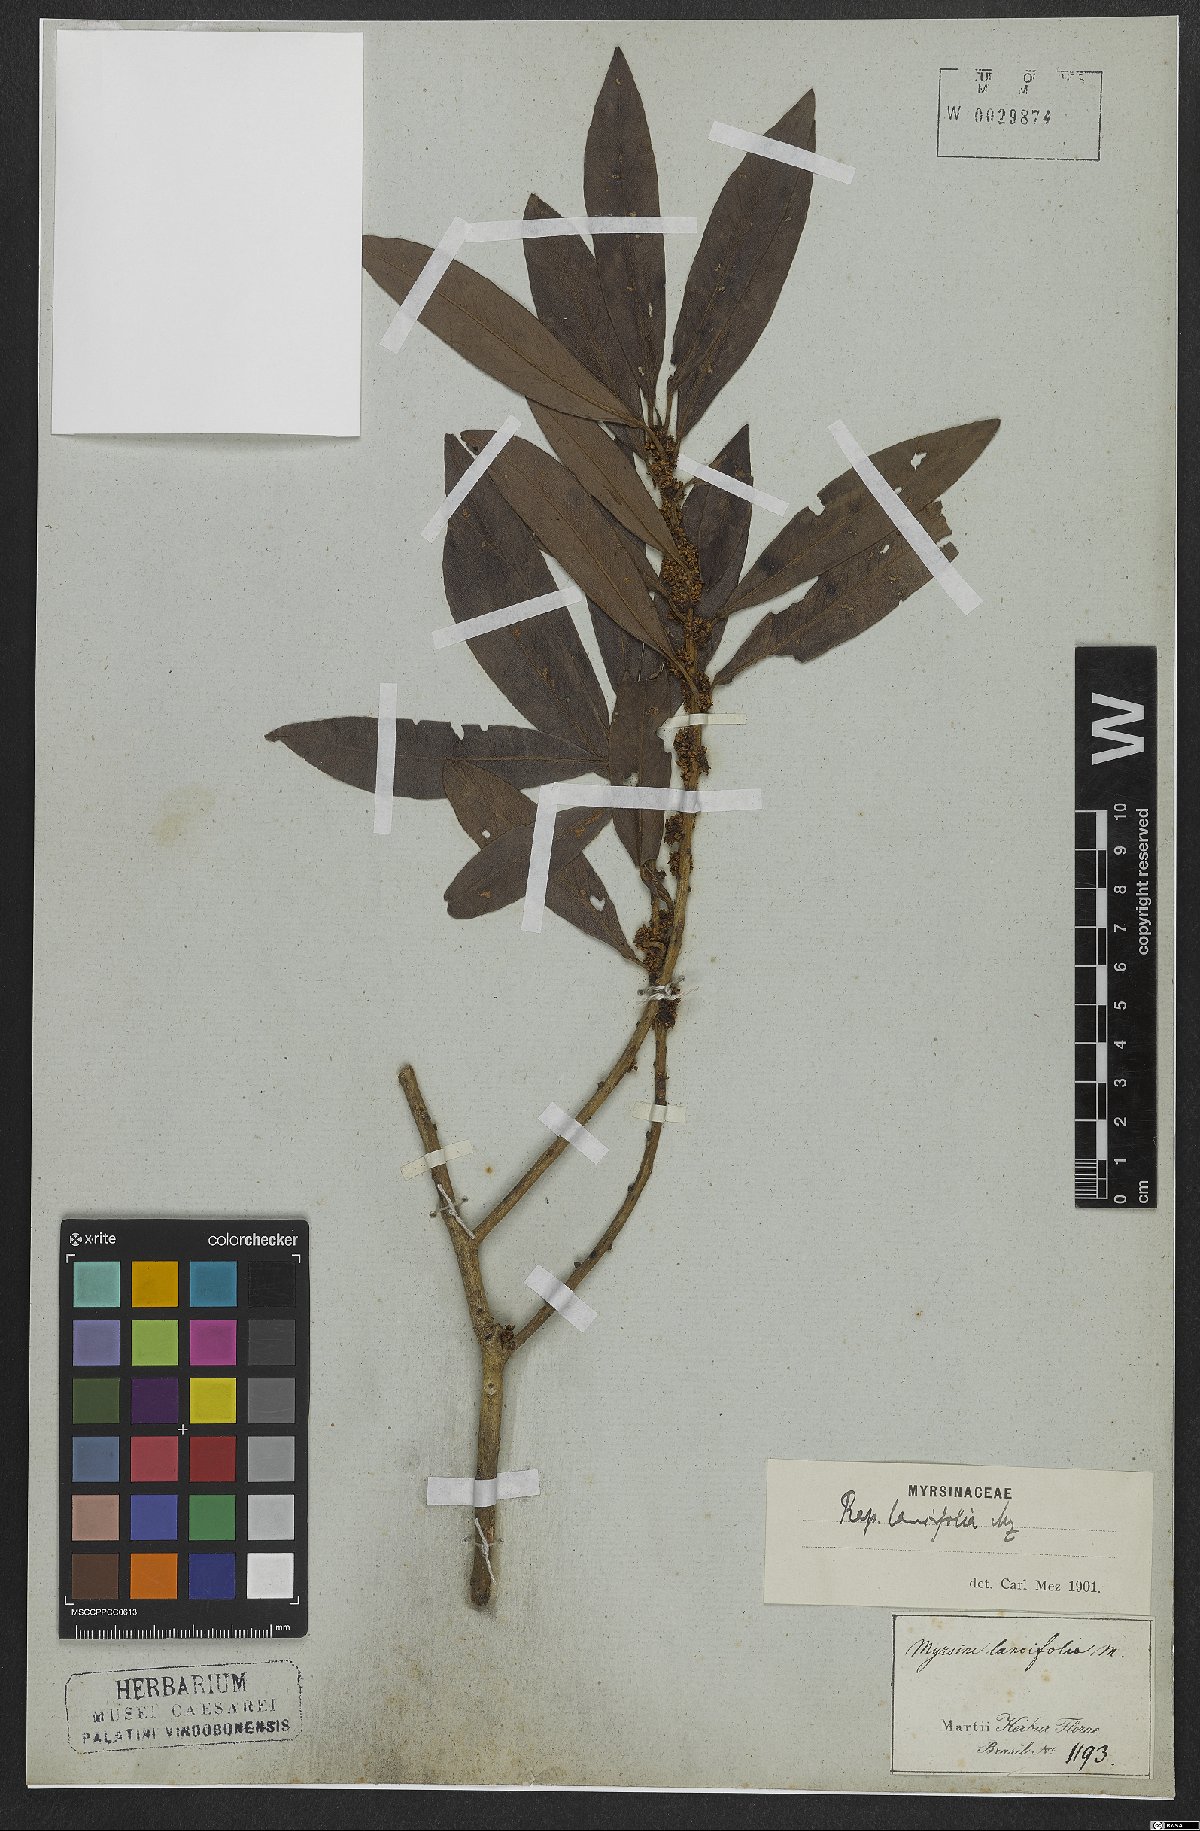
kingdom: Plantae
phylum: Tracheophyta
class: Magnoliopsida
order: Ericales
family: Primulaceae
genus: Myrsine
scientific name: Myrsine lancifolia
